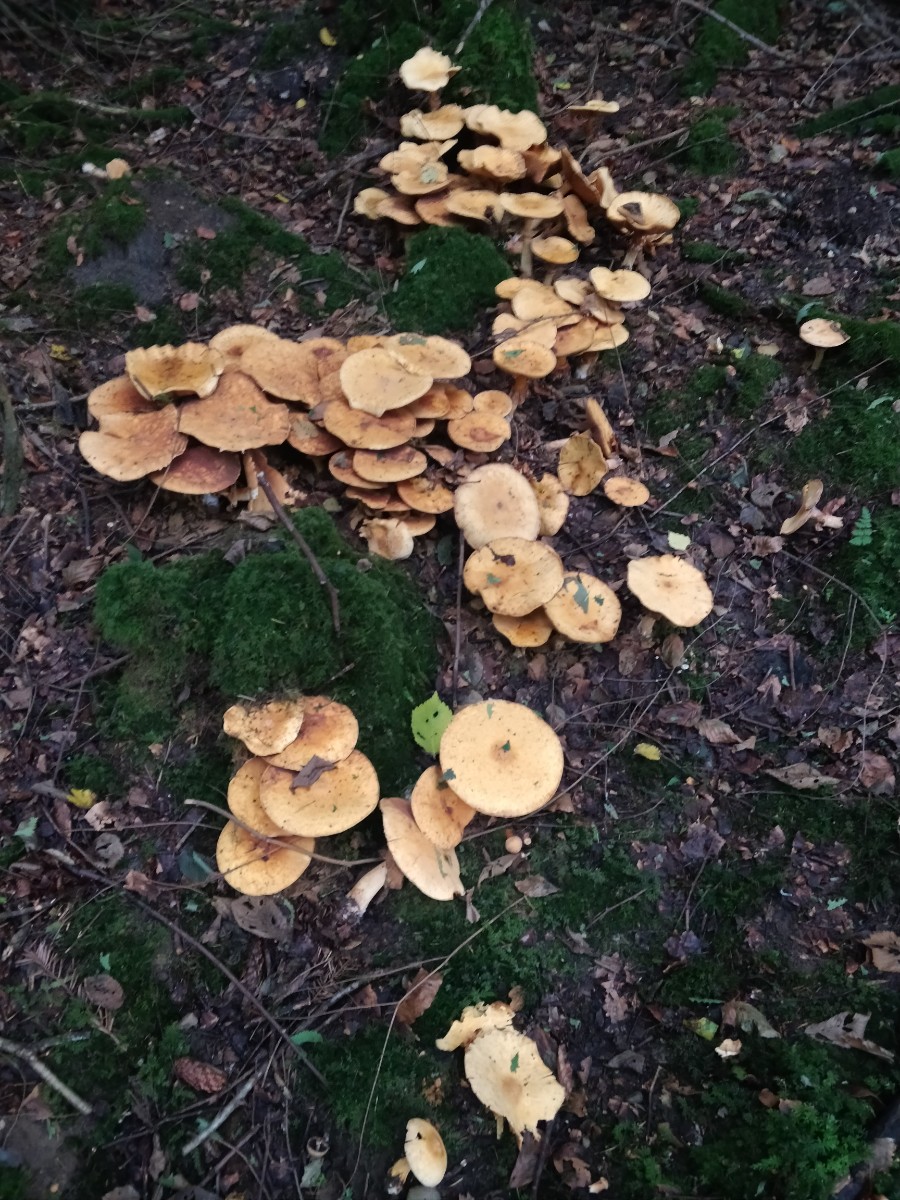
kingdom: Fungi
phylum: Basidiomycota
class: Agaricomycetes
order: Agaricales
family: Tricholomataceae
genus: Phaeolepiota
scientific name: Phaeolepiota aurea
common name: gyldenhat
